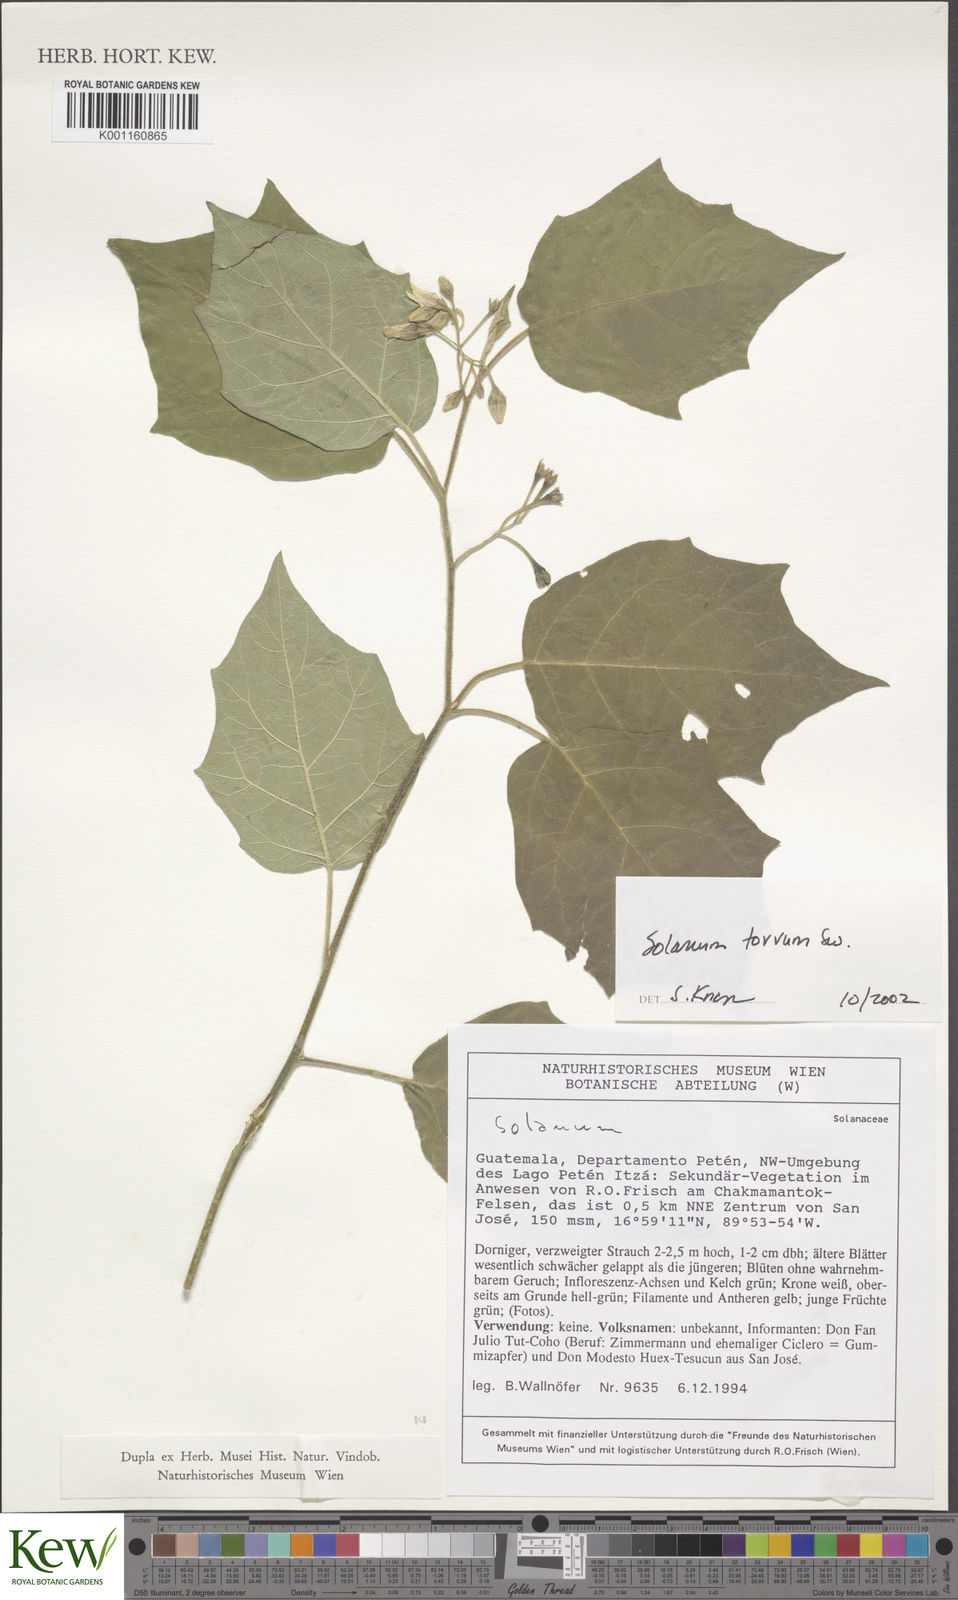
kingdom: Plantae
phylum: Tracheophyta
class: Magnoliopsida
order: Solanales
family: Solanaceae
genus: Solanum
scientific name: Solanum torvum
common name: Turkey berry
